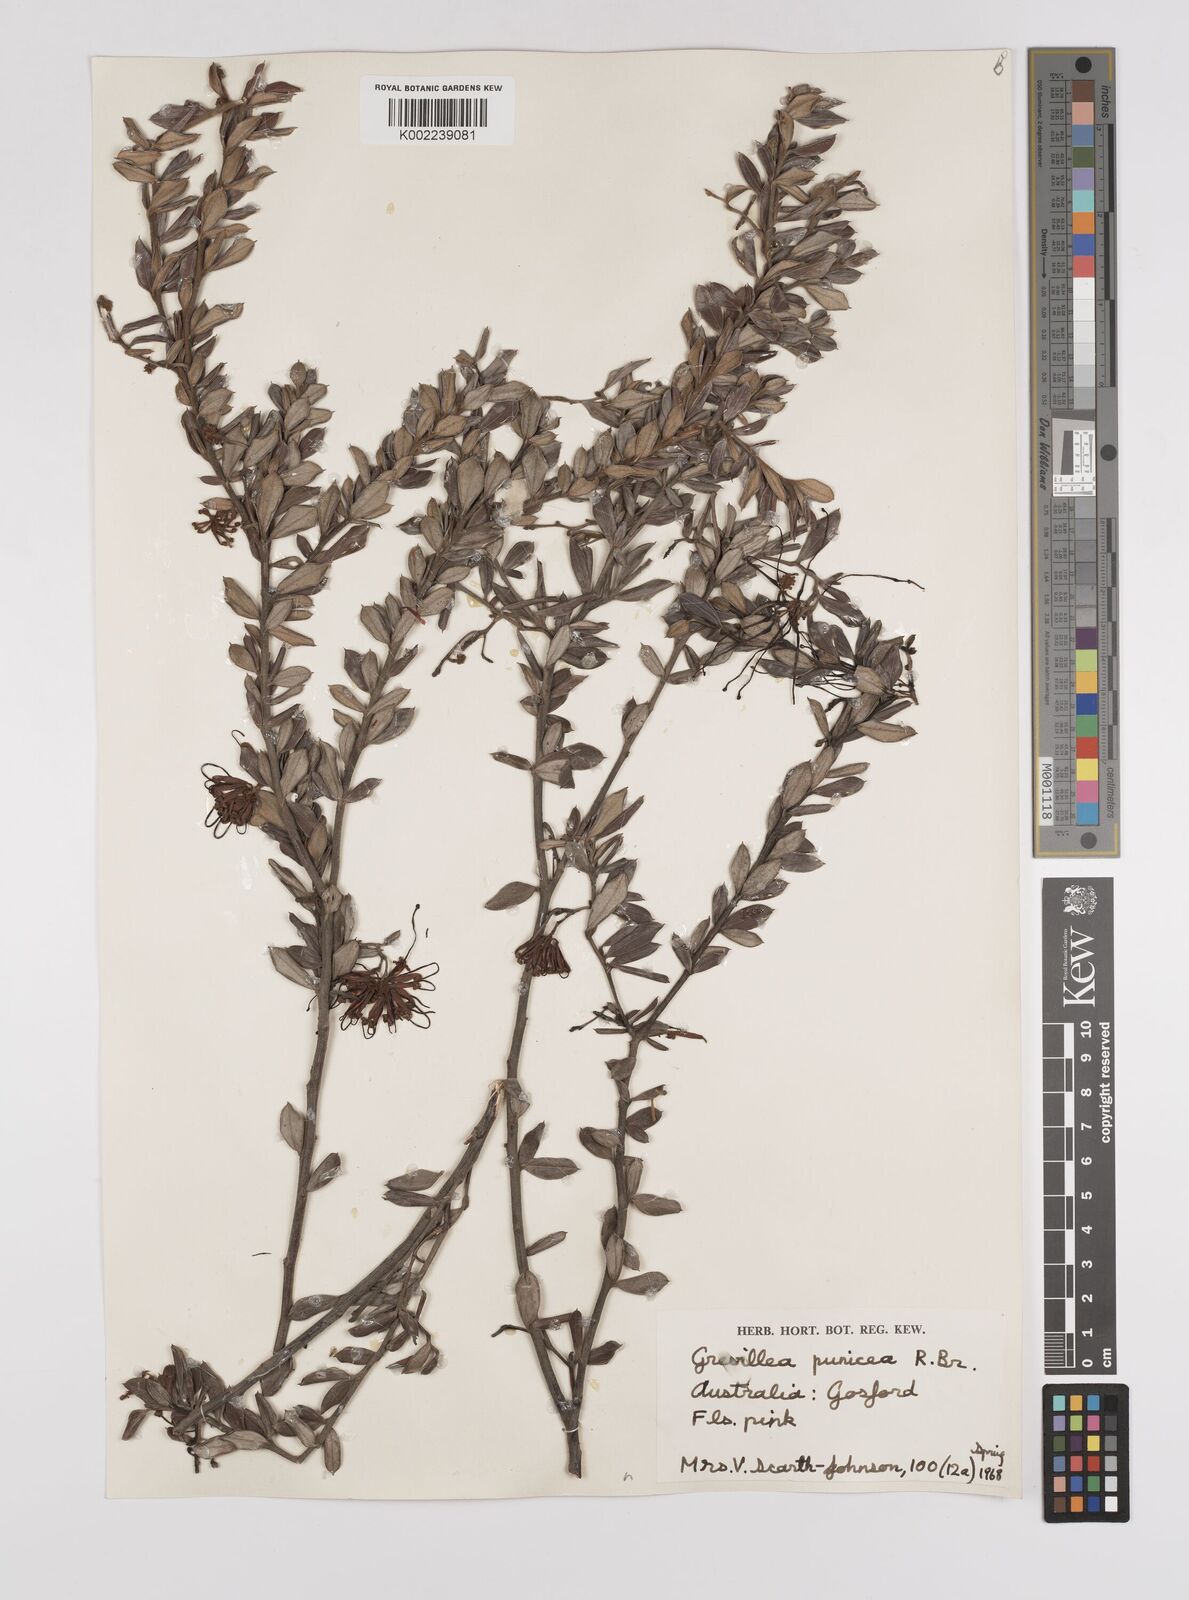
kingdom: Plantae
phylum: Tracheophyta
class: Magnoliopsida
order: Proteales
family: Proteaceae
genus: Grevillea
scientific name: Grevillea speciosa
